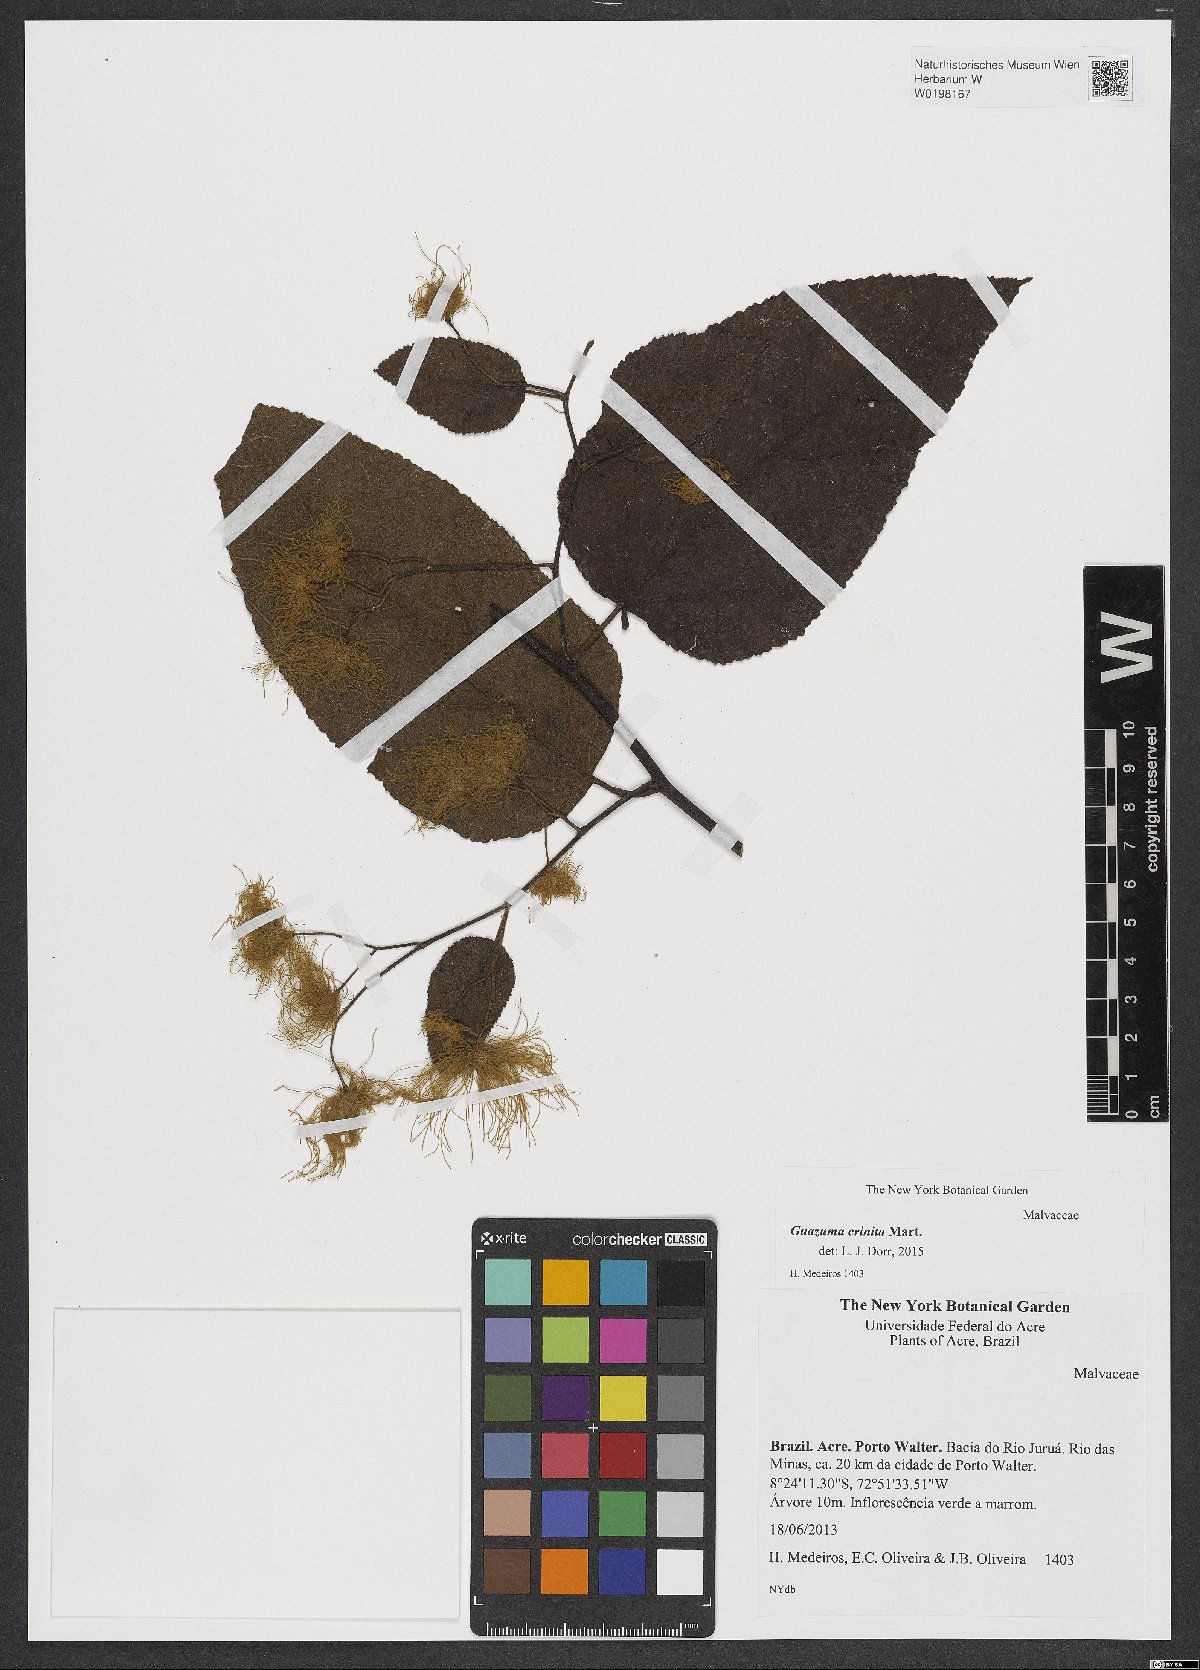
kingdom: Plantae
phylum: Tracheophyta
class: Magnoliopsida
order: Malvales
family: Malvaceae
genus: Guazuma
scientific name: Guazuma crinita
